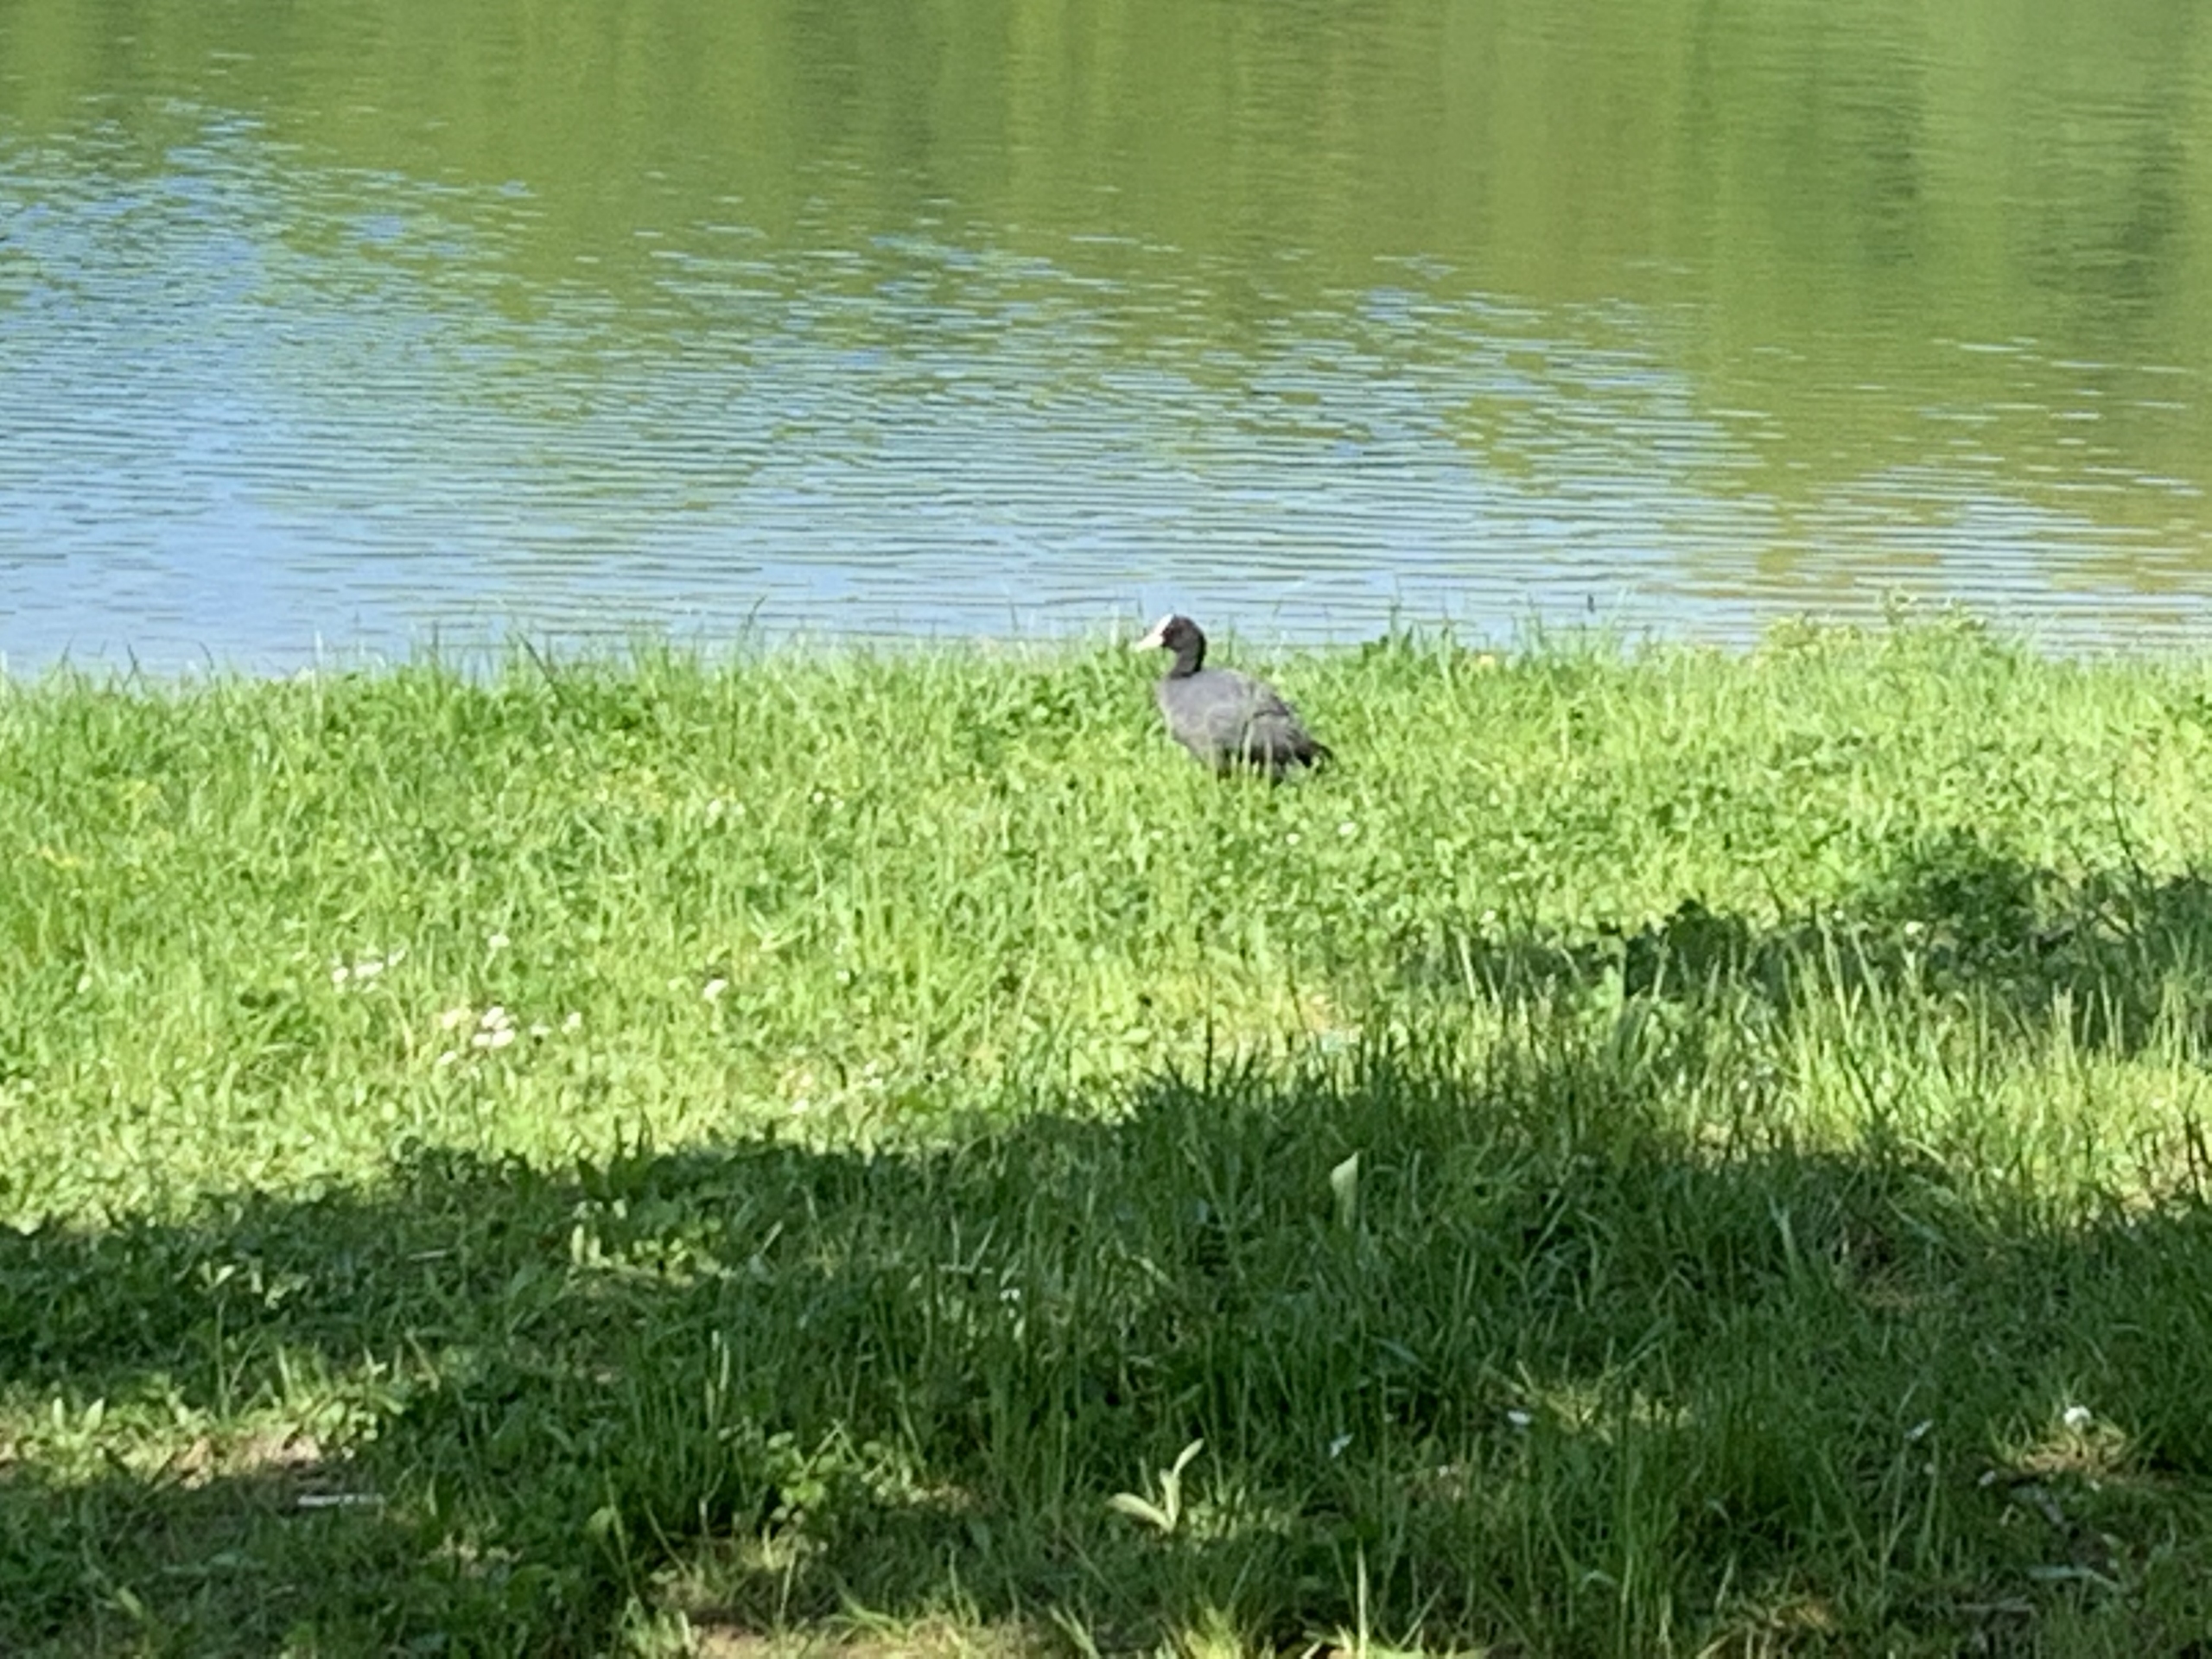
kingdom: Animalia
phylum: Chordata
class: Aves
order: Gruiformes
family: Rallidae
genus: Fulica
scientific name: Fulica atra
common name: Blishøne
